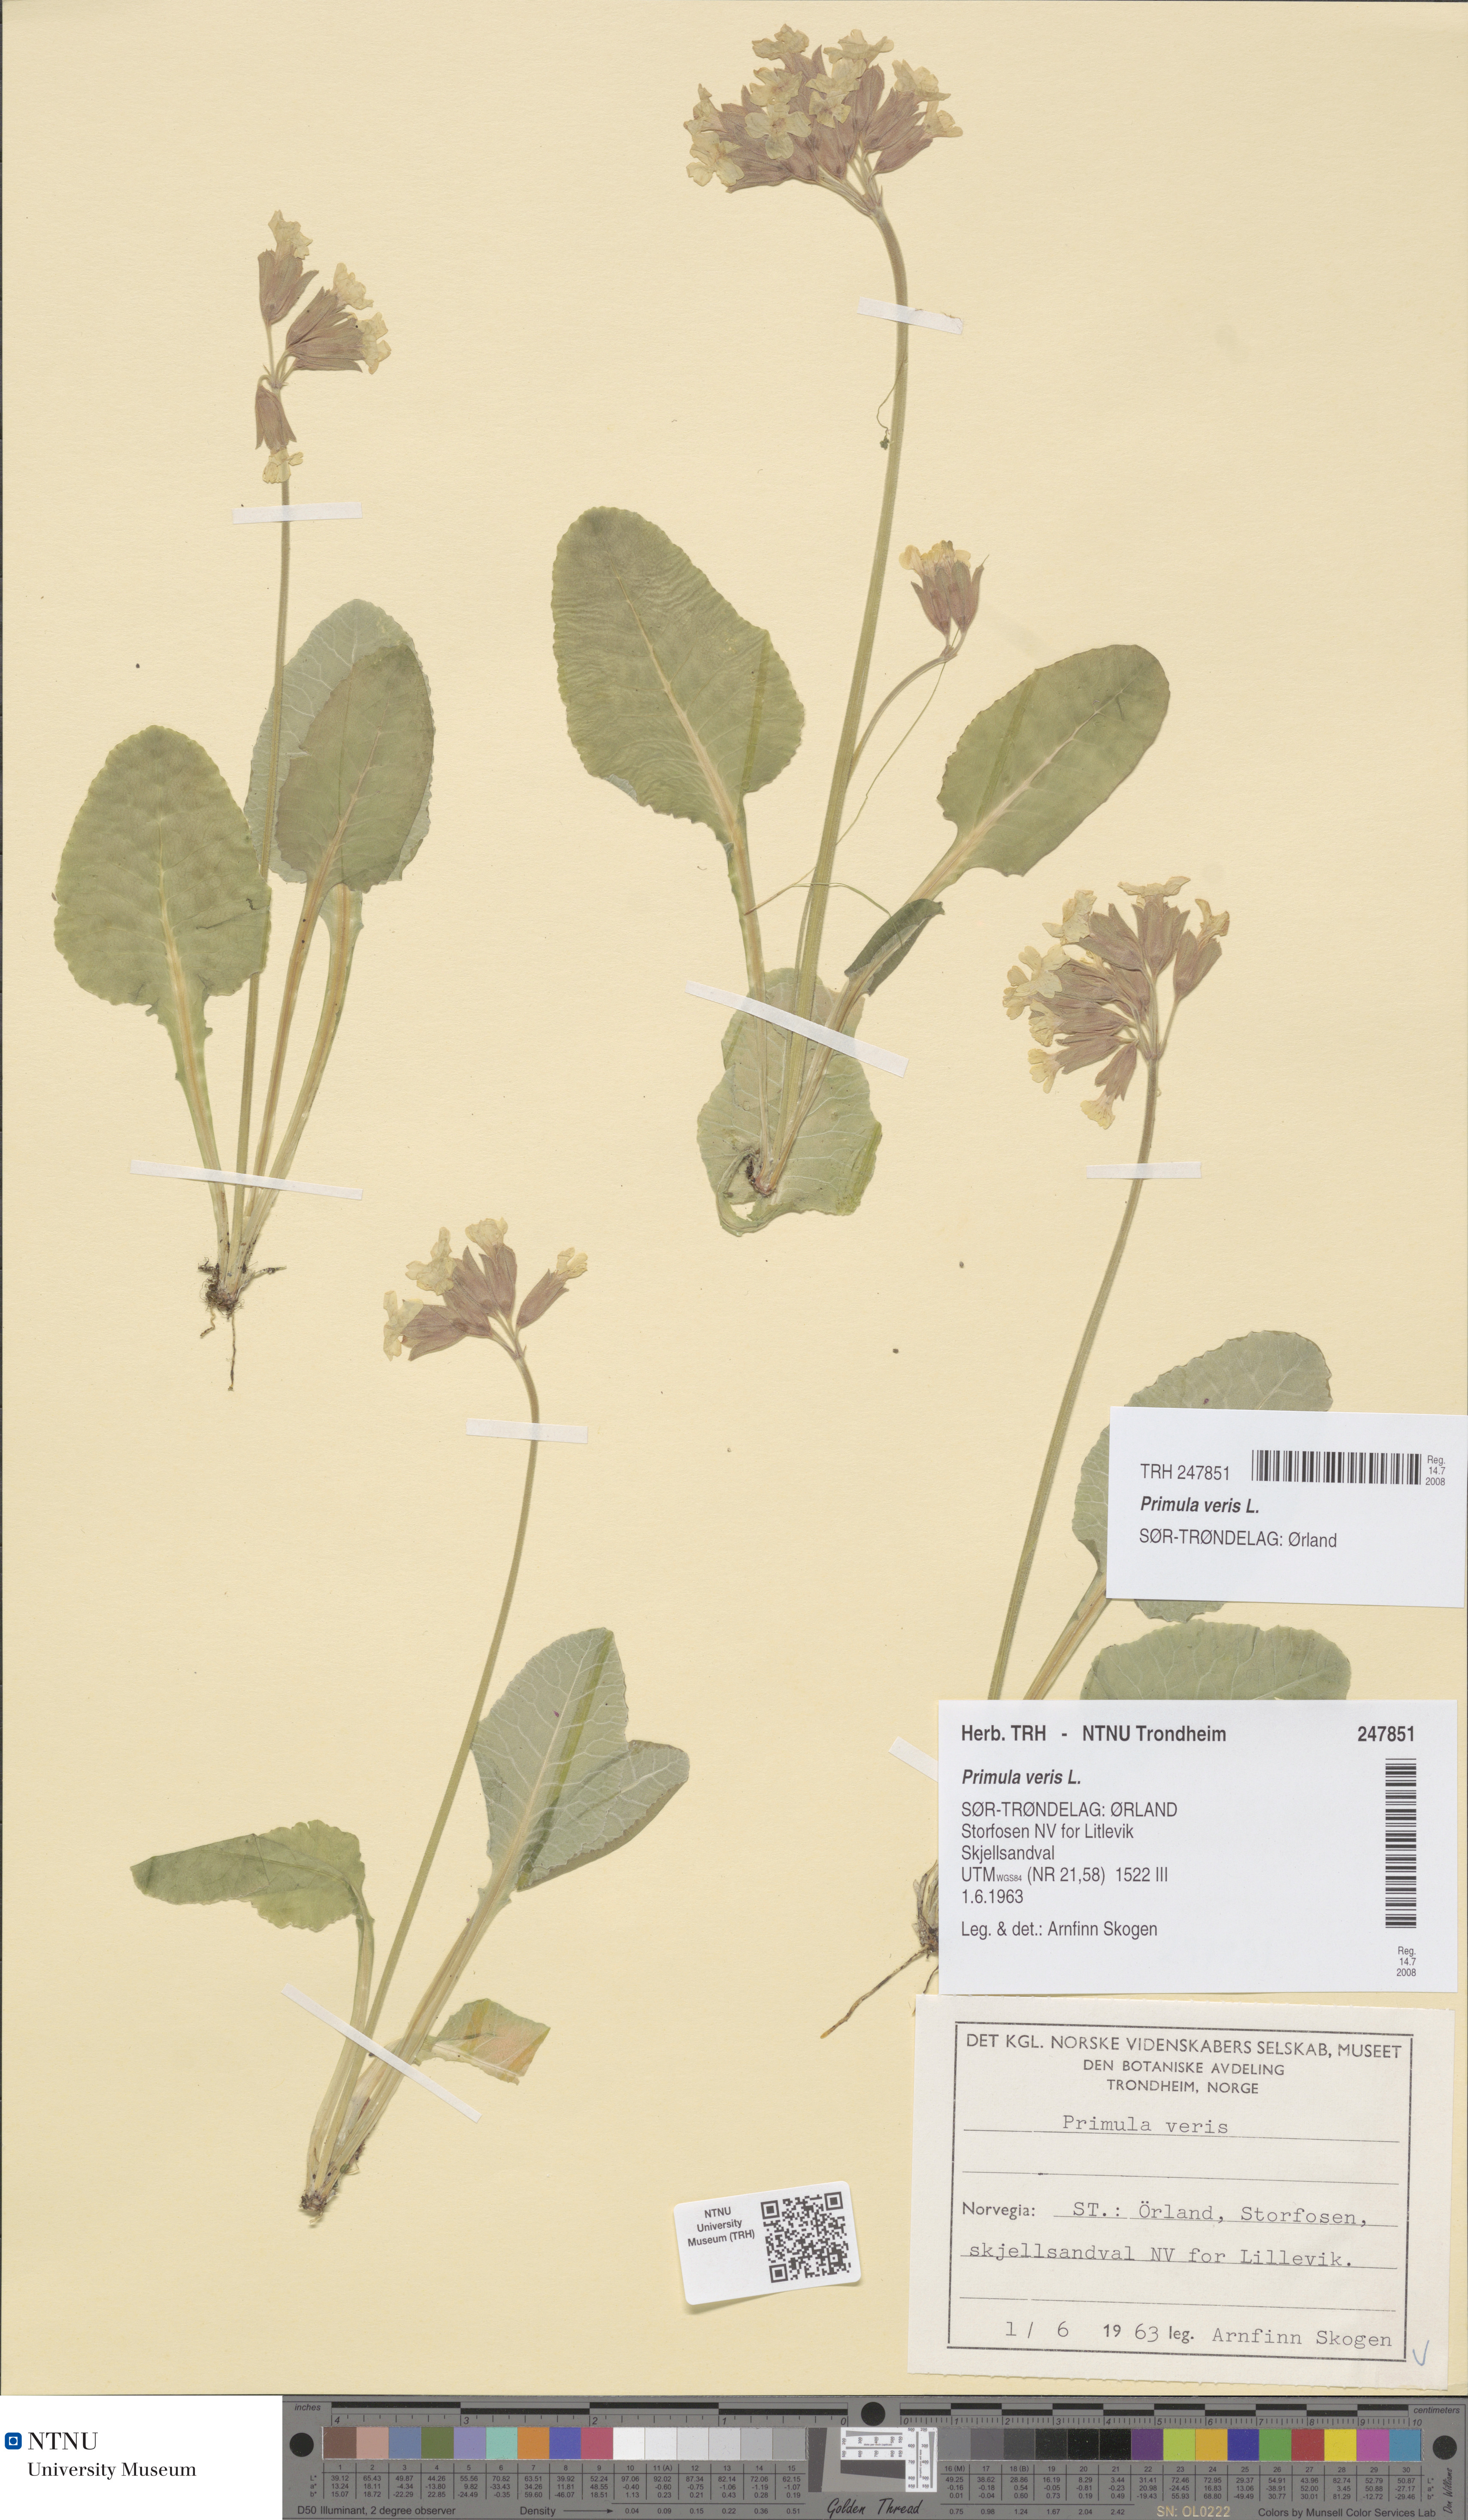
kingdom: Plantae
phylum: Tracheophyta
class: Magnoliopsida
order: Ericales
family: Primulaceae
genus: Primula
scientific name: Primula veris
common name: Cowslip
